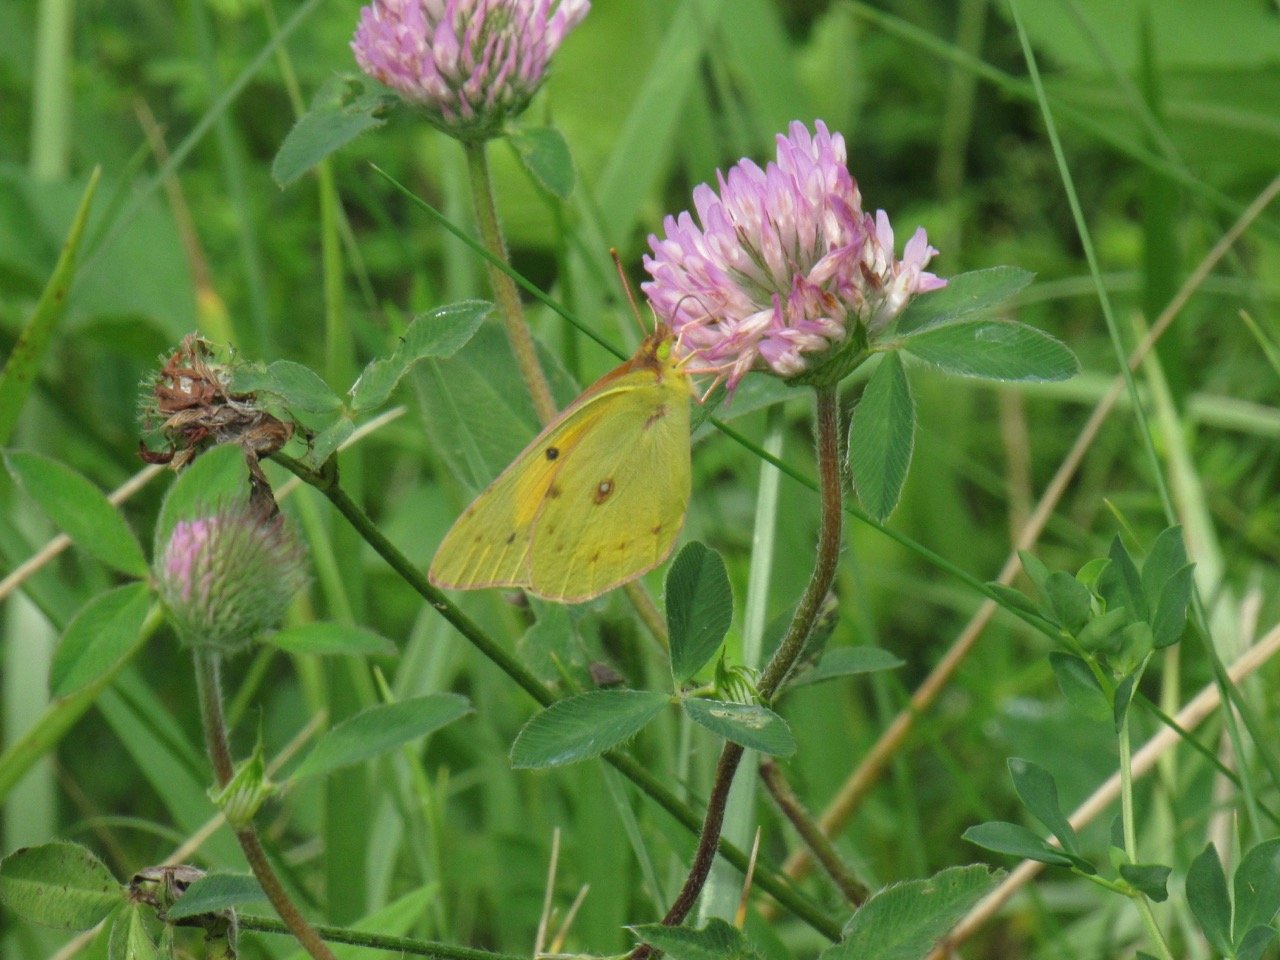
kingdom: Animalia
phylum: Arthropoda
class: Insecta
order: Lepidoptera
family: Pieridae
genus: Colias
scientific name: Colias eurytheme
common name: Orange Sulphur
